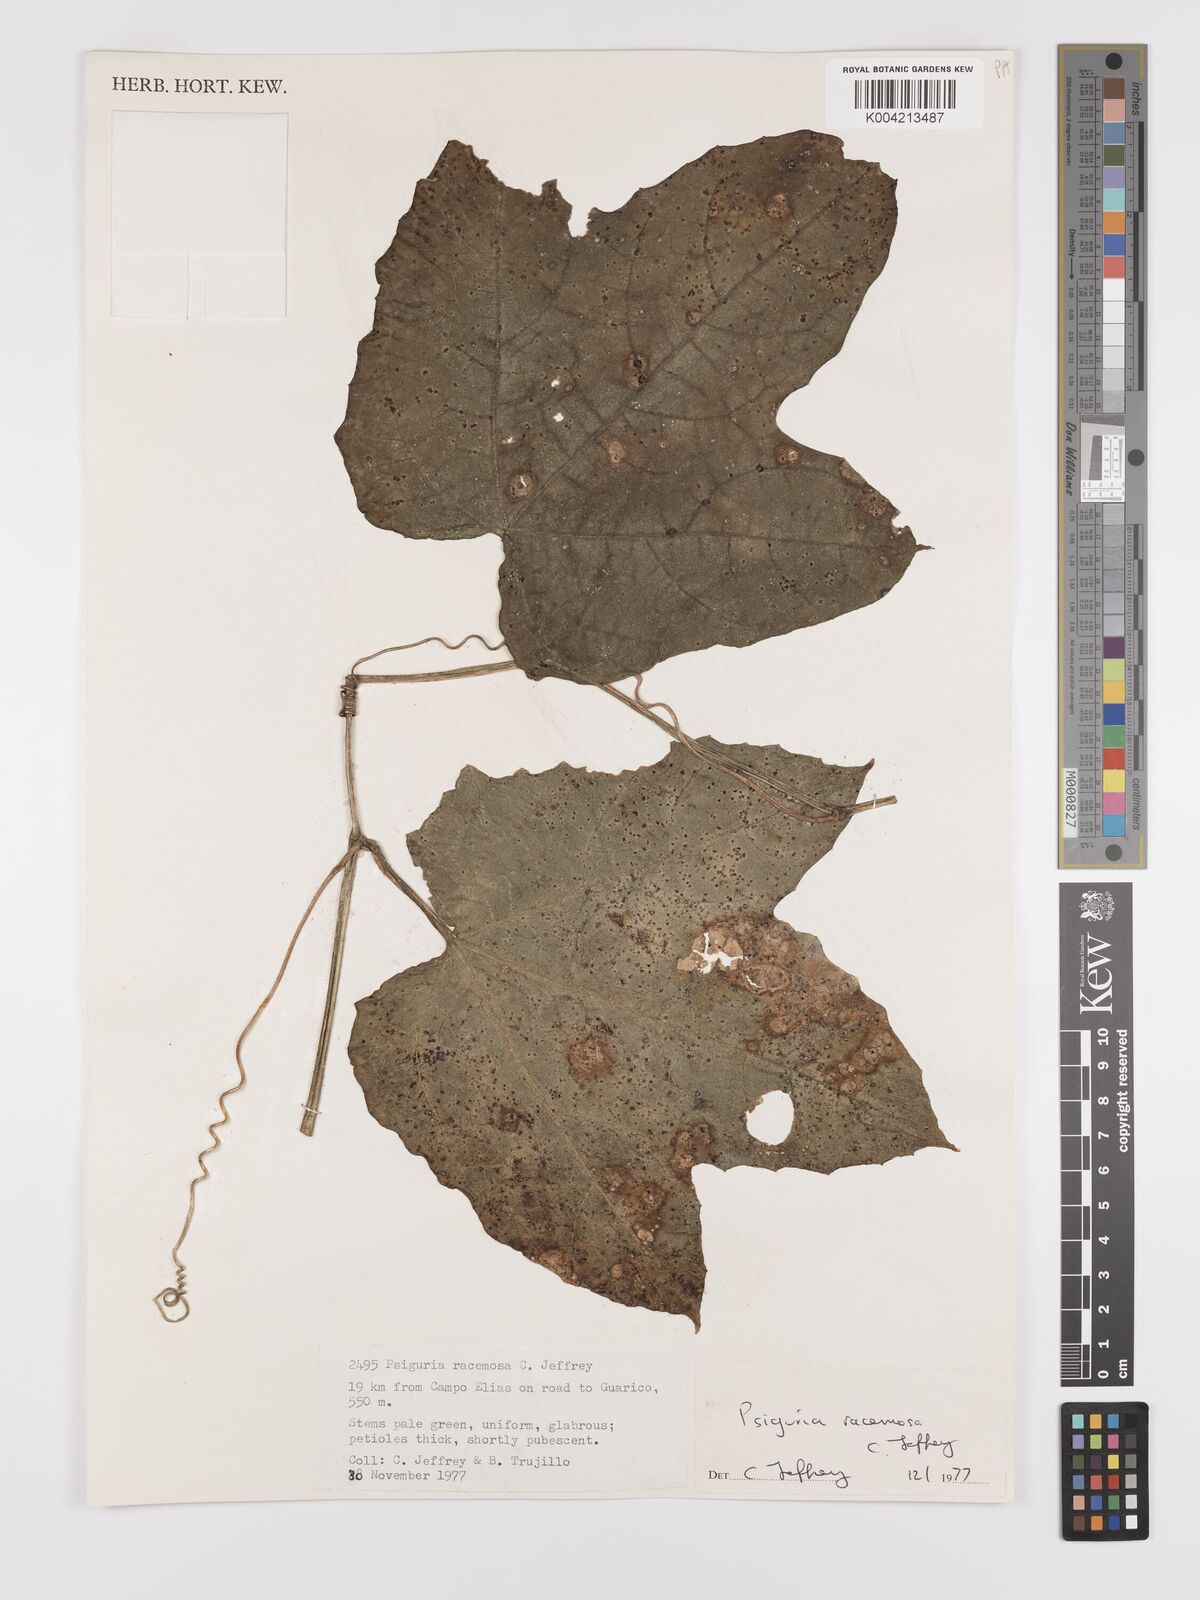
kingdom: Plantae
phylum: Tracheophyta
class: Magnoliopsida
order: Cucurbitales
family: Cucurbitaceae
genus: Psiguria
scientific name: Psiguria racemosa
